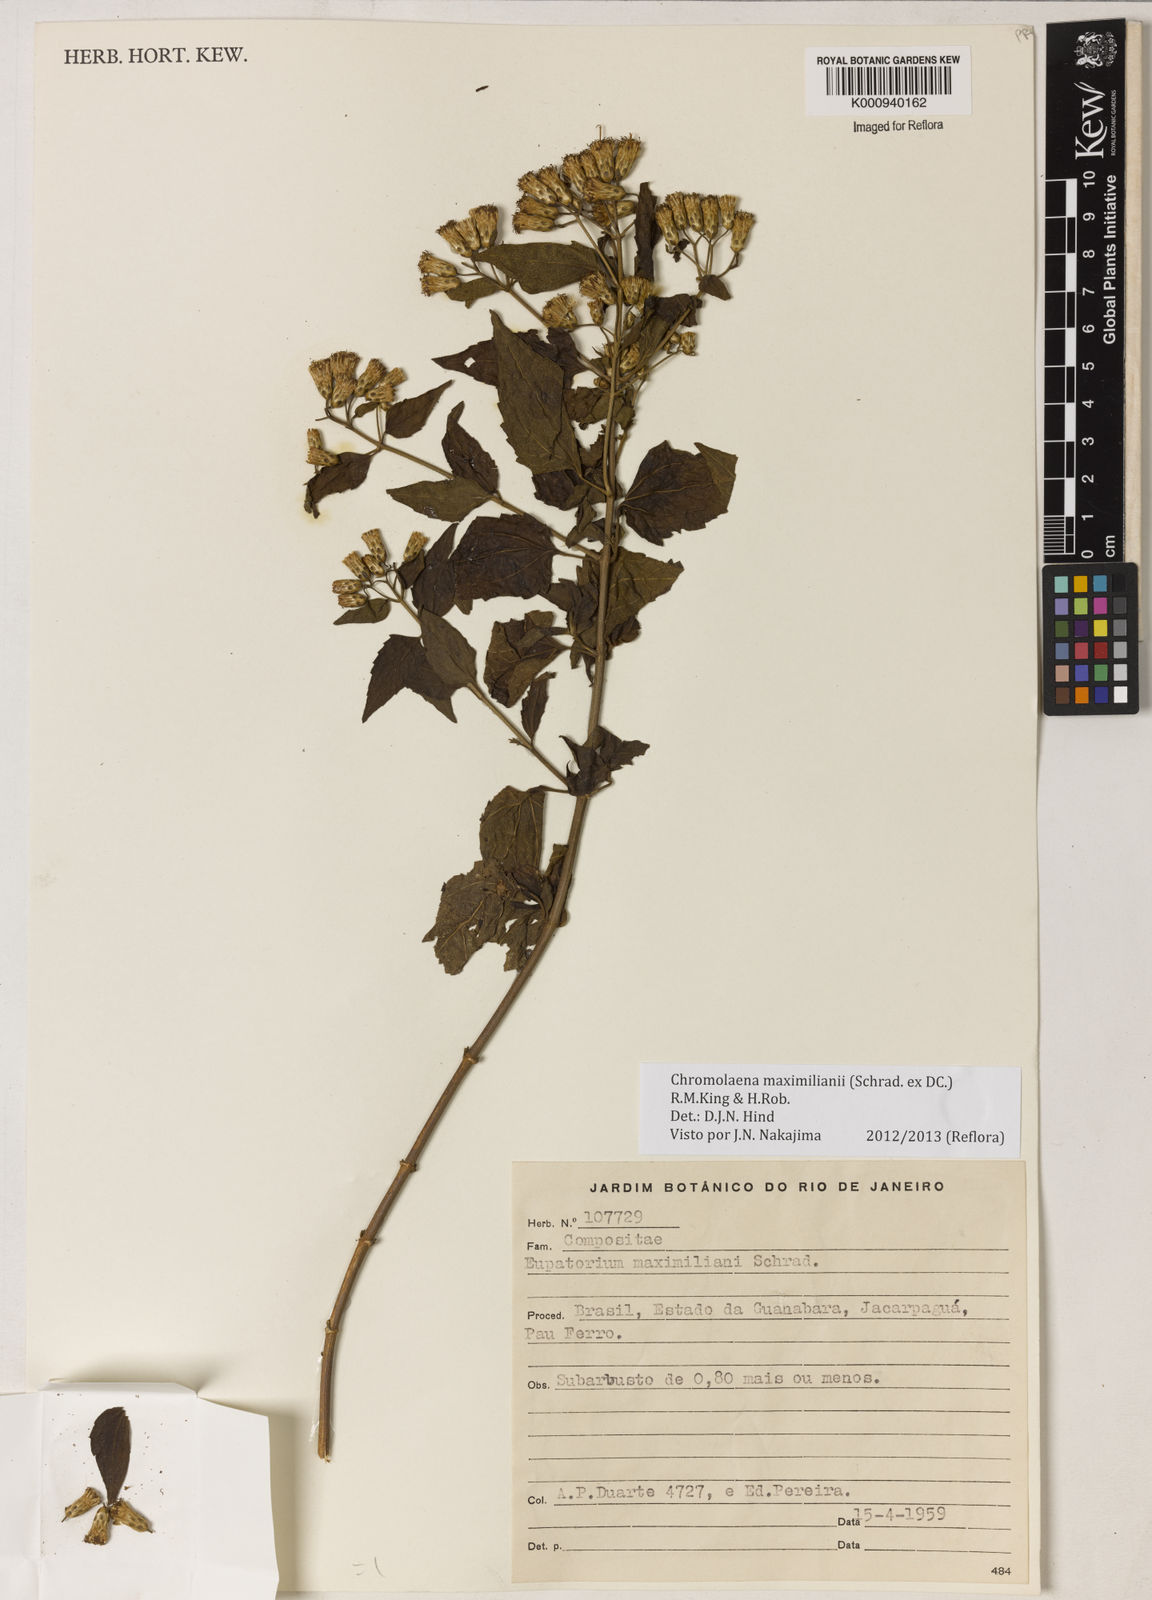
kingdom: Plantae
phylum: Tracheophyta
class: Magnoliopsida
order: Asterales
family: Asteraceae
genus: Chromolaena
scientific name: Chromolaena maximiliani
